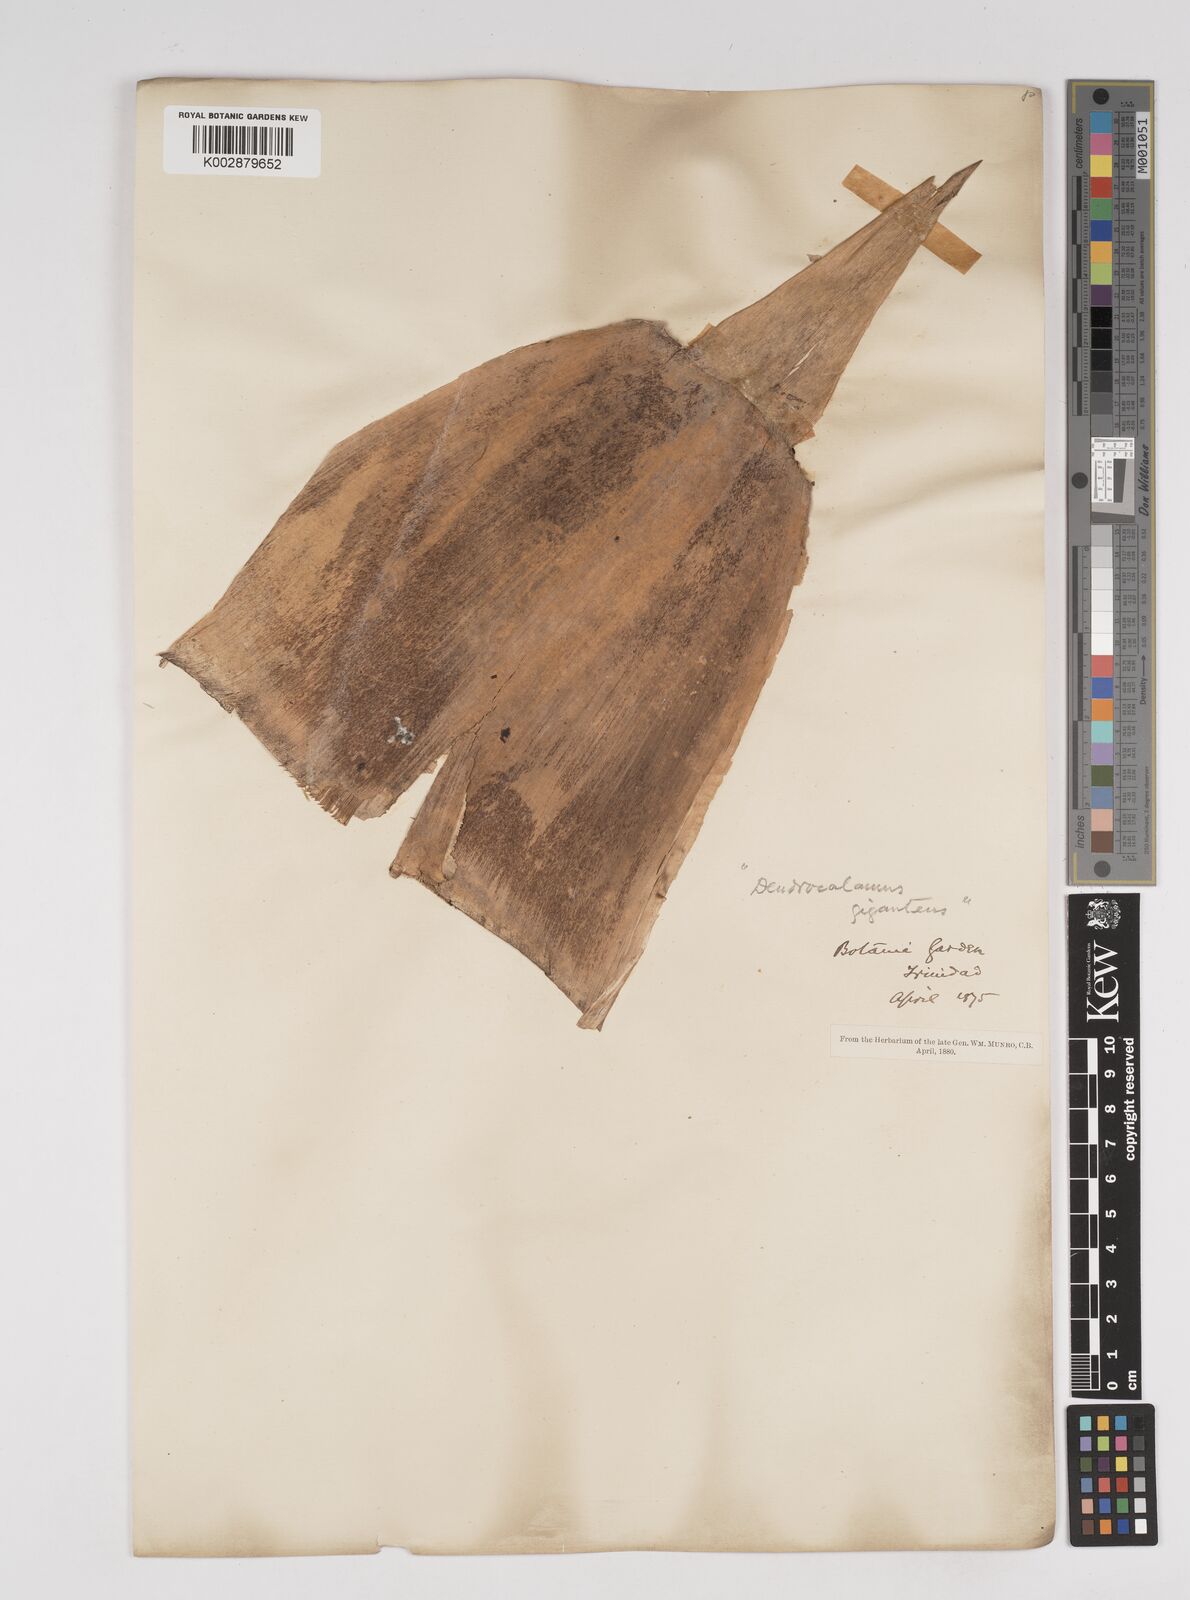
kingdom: Plantae
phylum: Tracheophyta
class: Liliopsida
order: Poales
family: Poaceae
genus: Dendrocalamus
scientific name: Dendrocalamus giganteus
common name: Giant bamboo
